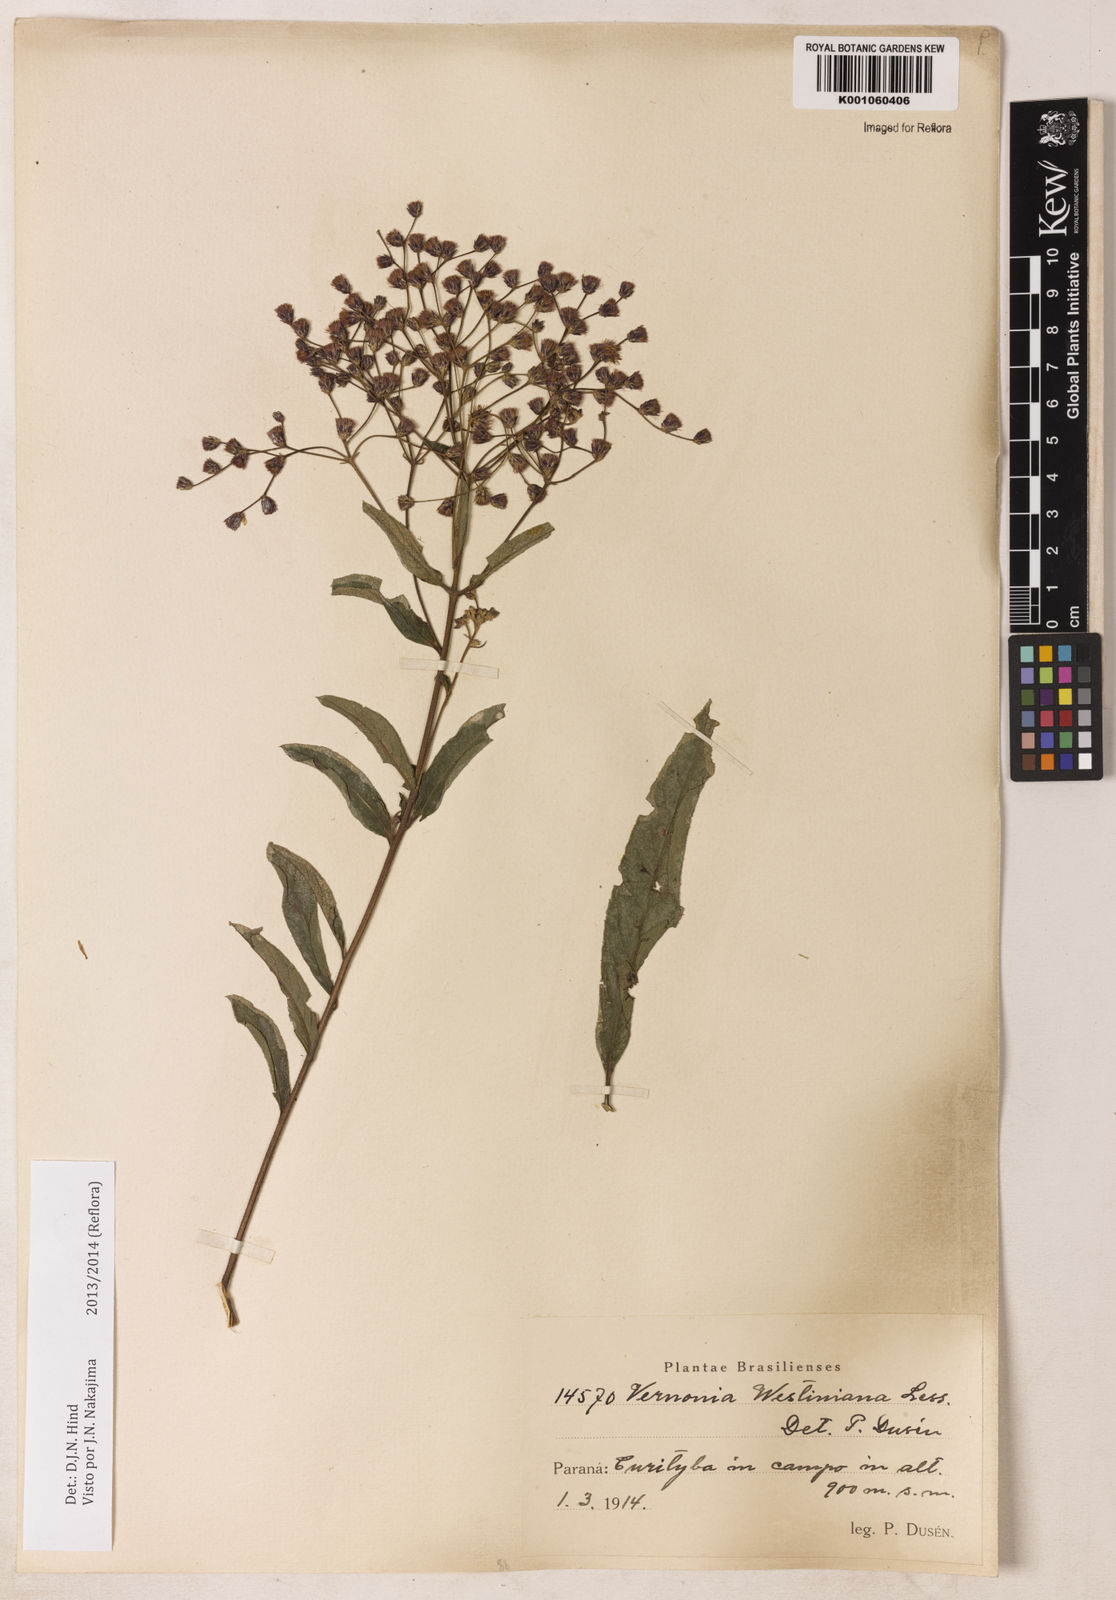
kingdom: Plantae
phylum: Tracheophyta
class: Magnoliopsida
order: Asterales
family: Asteraceae
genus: Vernonanthura
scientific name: Vernonanthura westiniana
